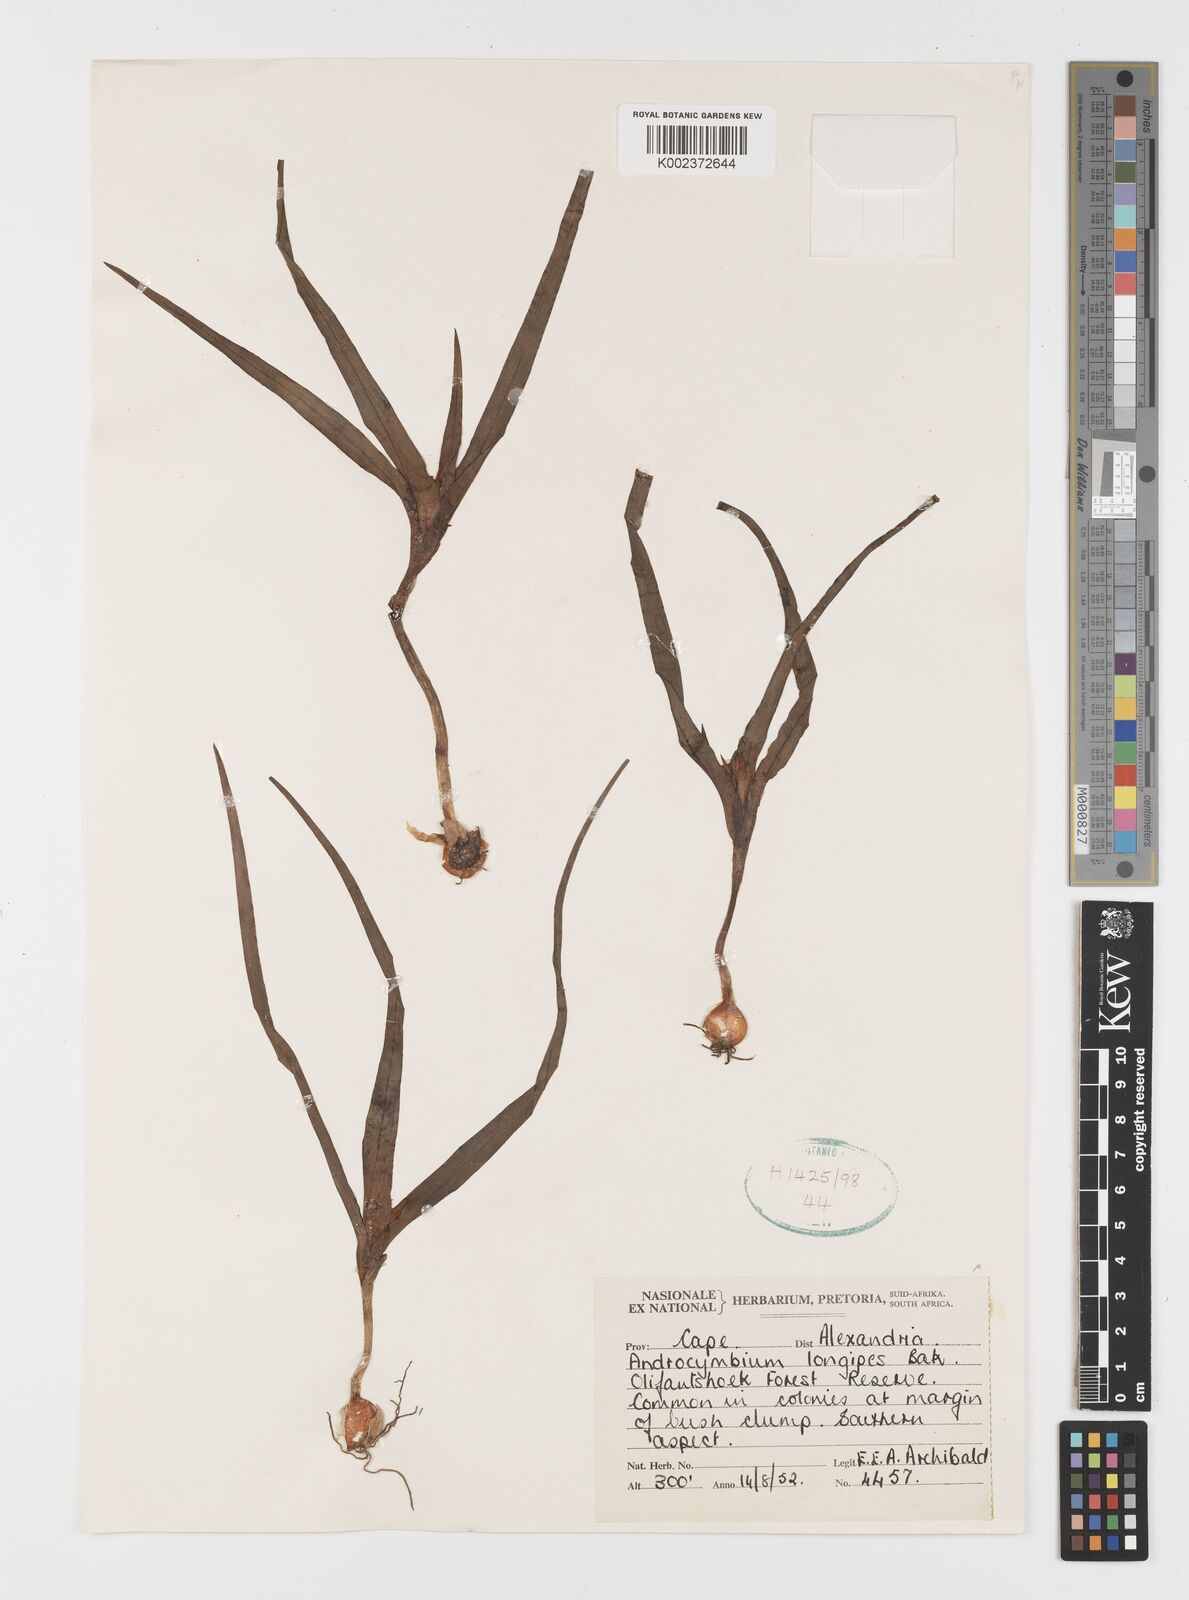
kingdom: Plantae
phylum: Tracheophyta
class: Liliopsida
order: Liliales
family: Colchicaceae
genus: Colchicum
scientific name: Colchicum longipes
